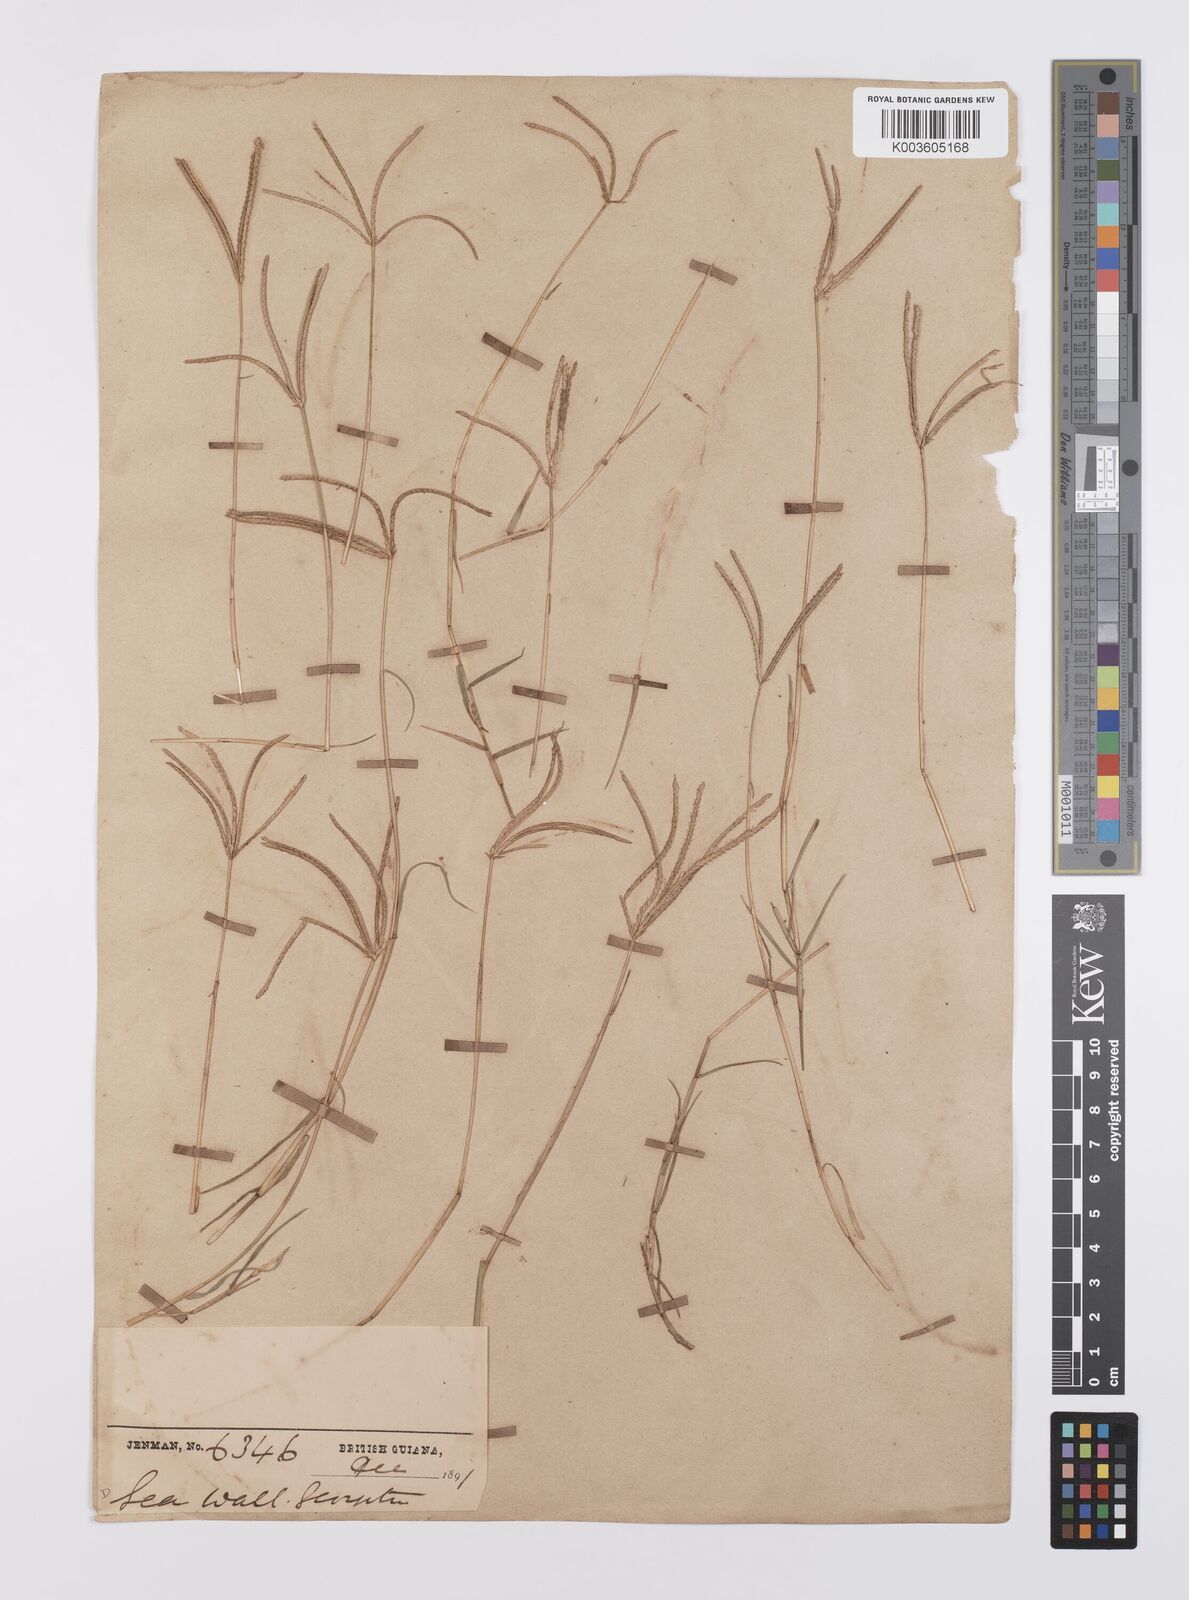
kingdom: Plantae
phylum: Tracheophyta
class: Liliopsida
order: Poales
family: Poaceae
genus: Cynodon
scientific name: Cynodon dactylon
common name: Bermuda grass
